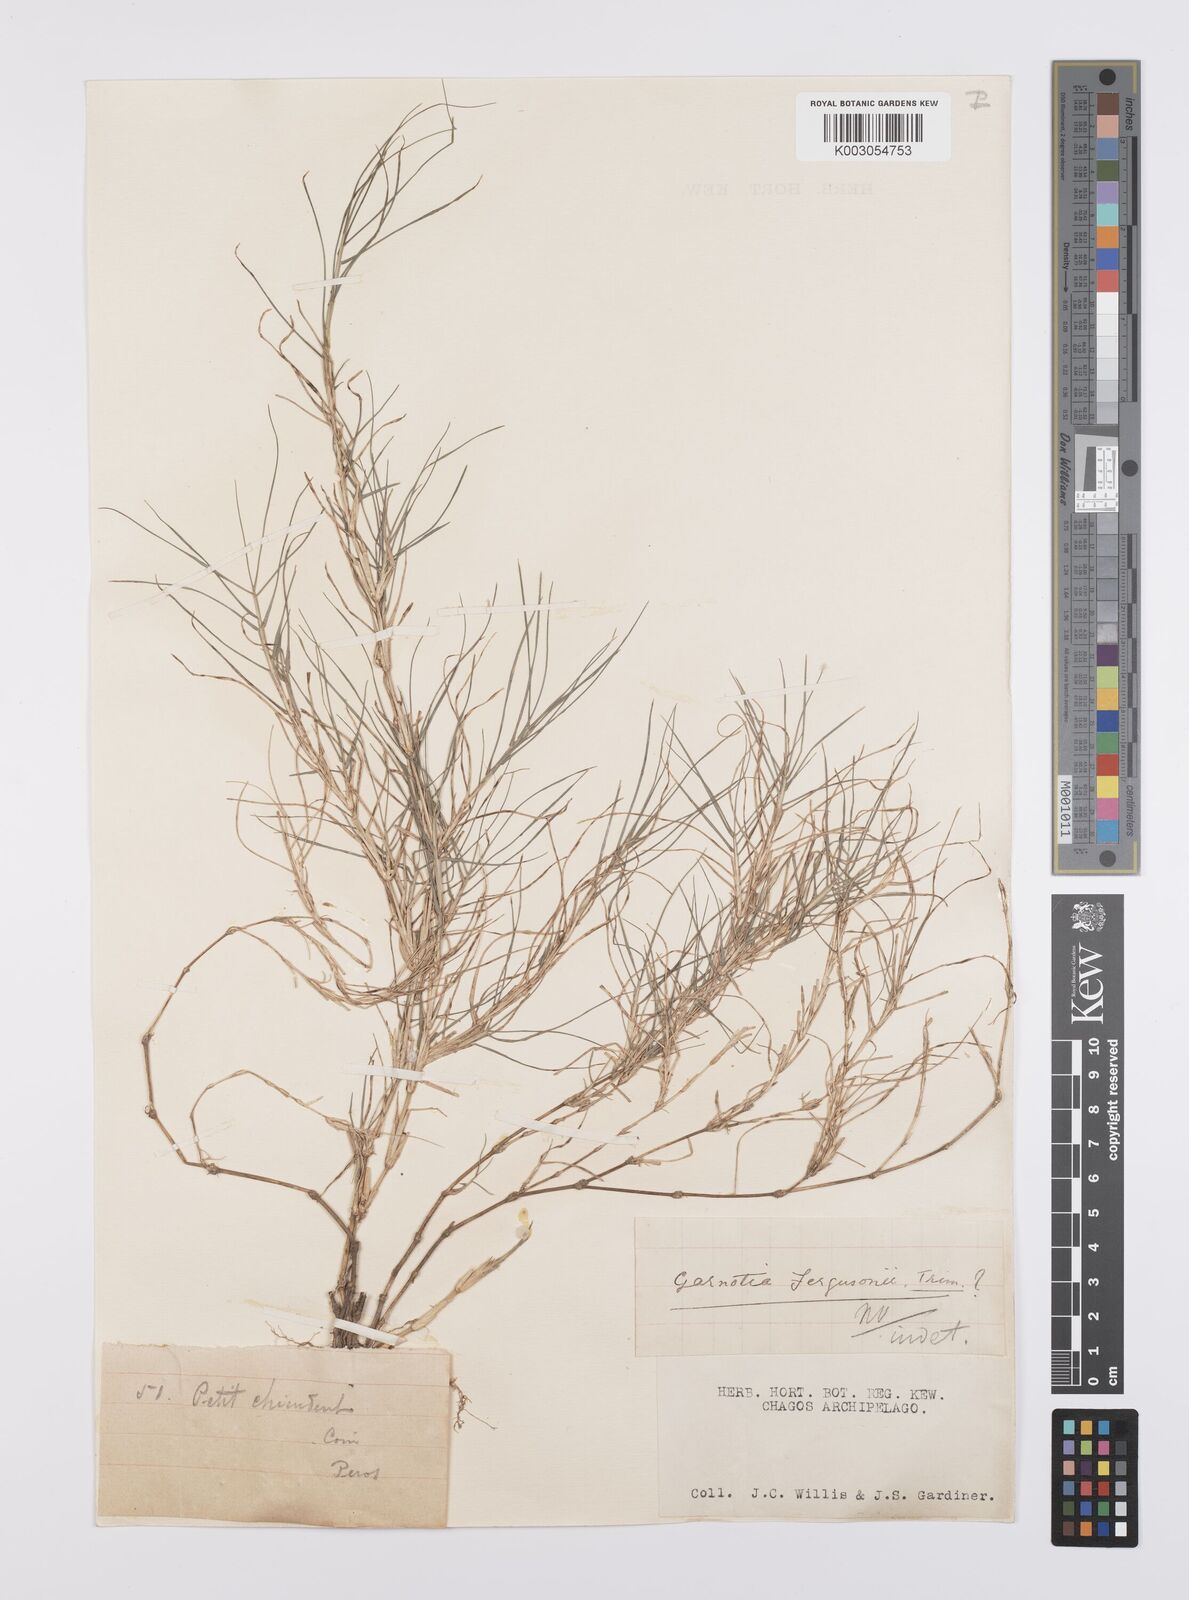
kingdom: Plantae
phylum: Tracheophyta
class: Liliopsida
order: Poales
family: Poaceae
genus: Cynodon
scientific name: Cynodon dactylon
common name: Bermuda grass
